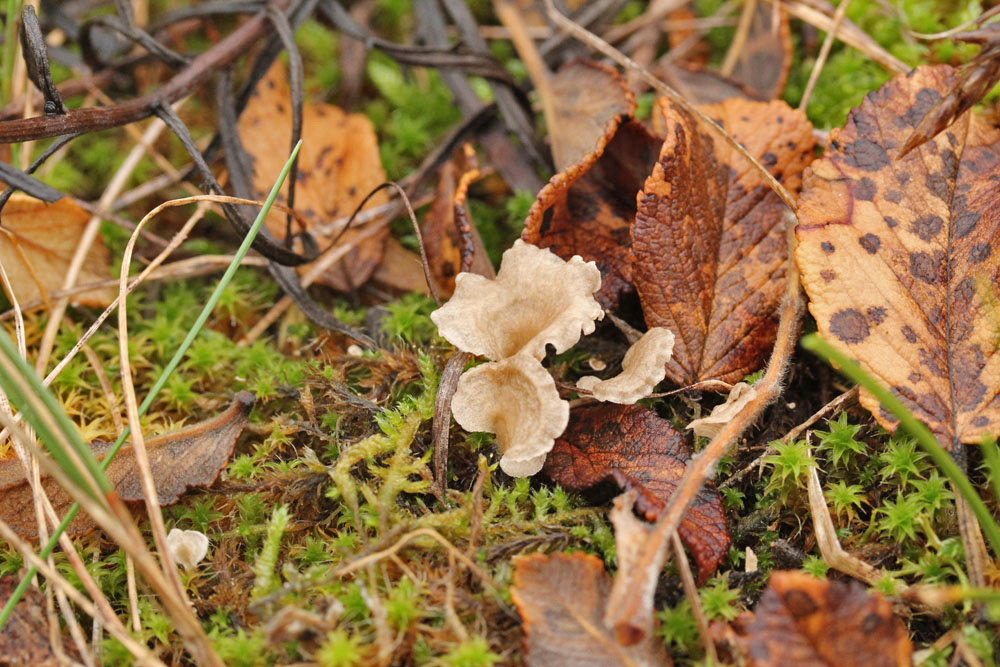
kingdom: Fungi
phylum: Basidiomycota
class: Agaricomycetes
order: Agaricales
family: Hygrophoraceae
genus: Arrhenia
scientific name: Arrhenia spathulata
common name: skæv fontænehat
